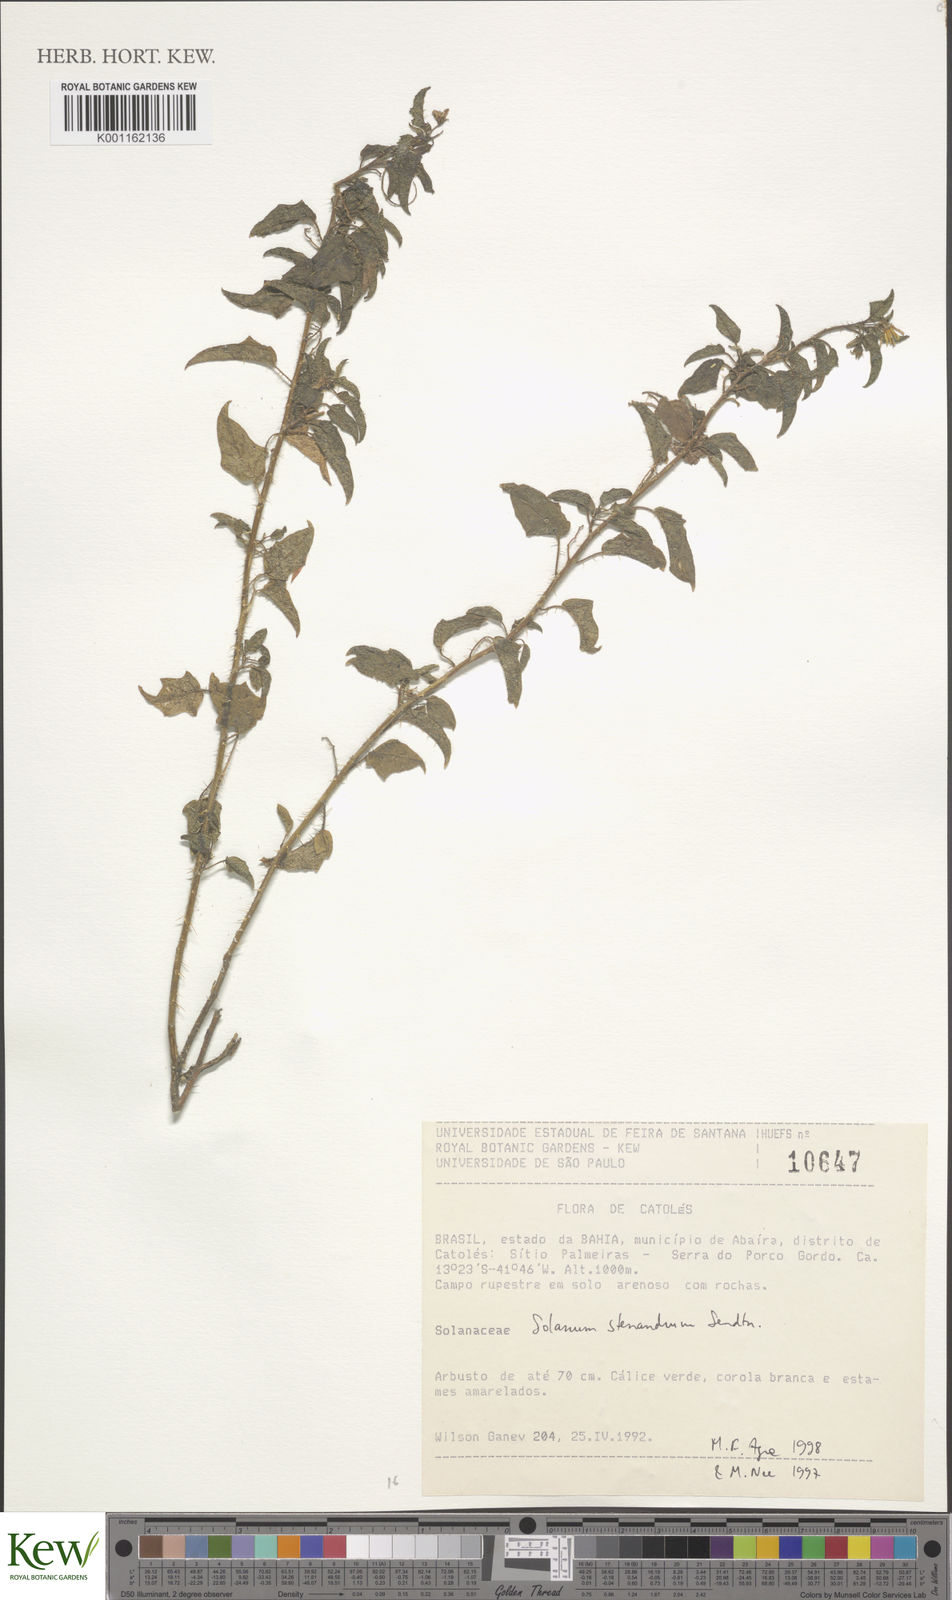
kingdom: Plantae
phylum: Tracheophyta
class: Magnoliopsida
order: Solanales
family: Solanaceae
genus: Solanum
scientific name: Solanum stenandrum
